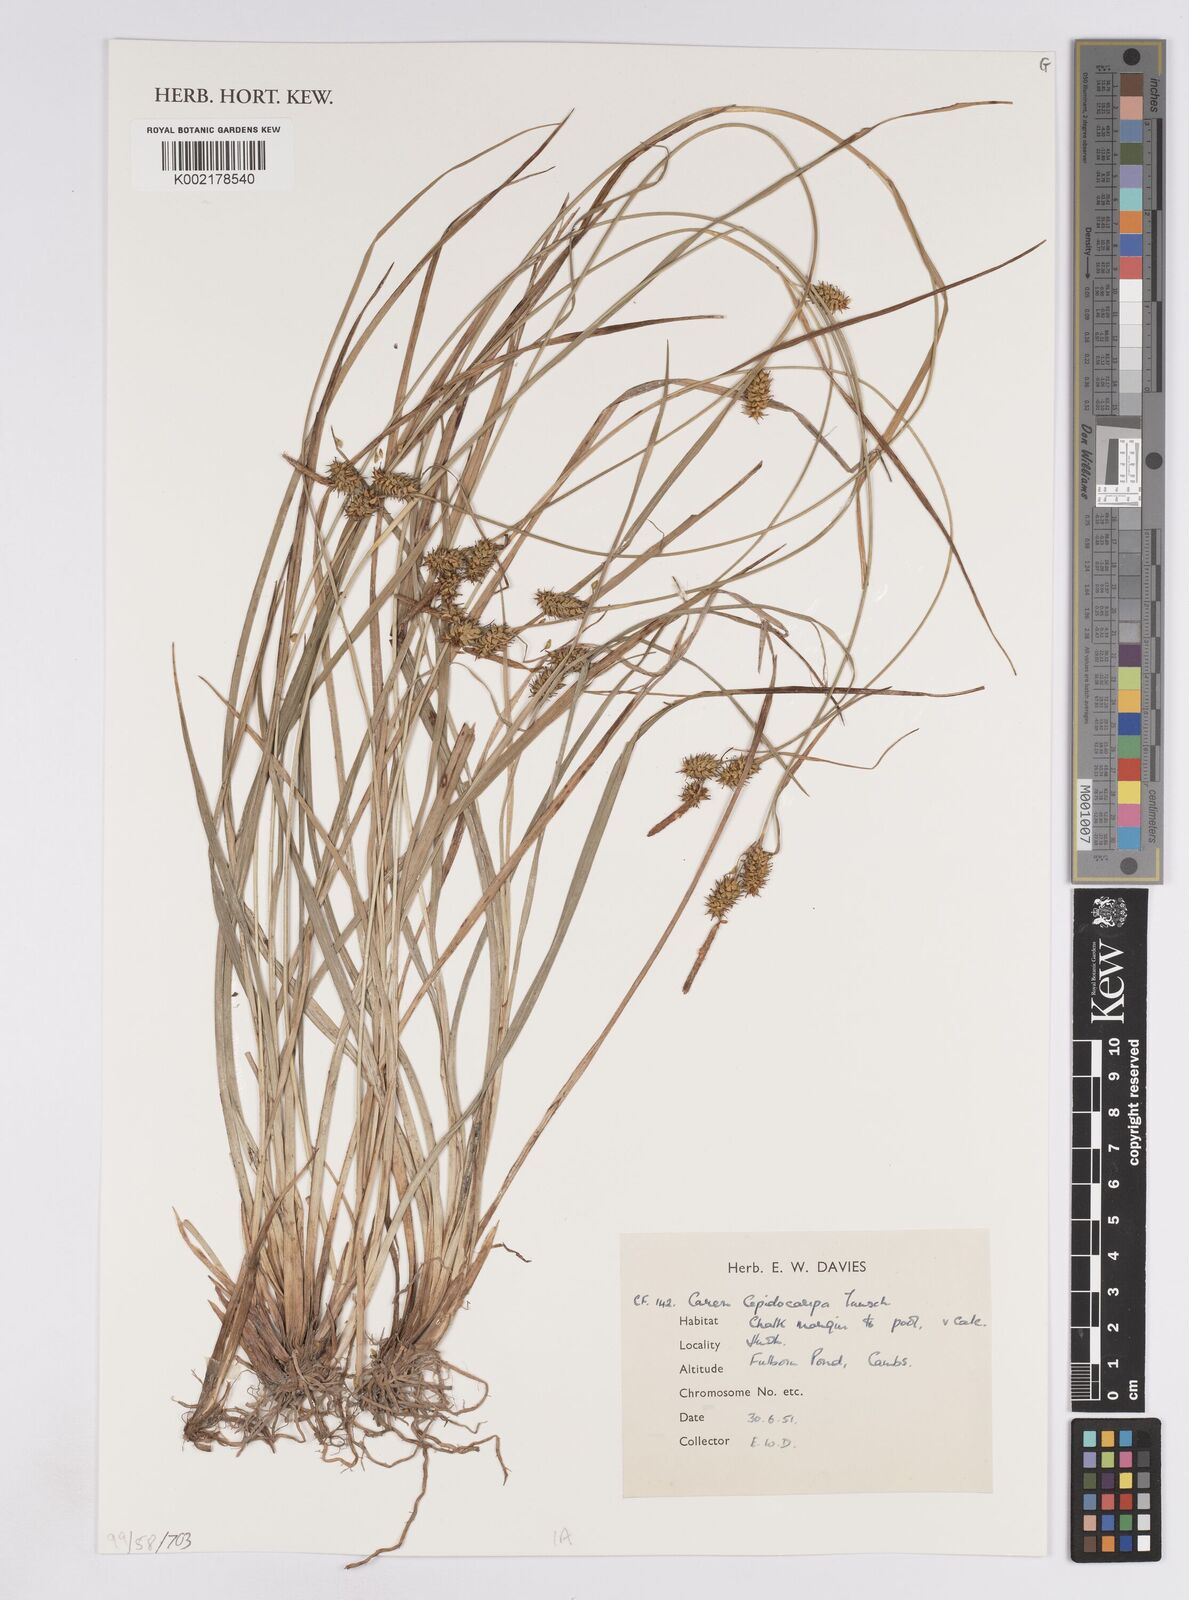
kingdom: Plantae
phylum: Tracheophyta
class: Liliopsida
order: Poales
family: Cyperaceae
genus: Carex
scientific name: Carex lepidocarpa
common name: Long-stalked yellow-sedge
